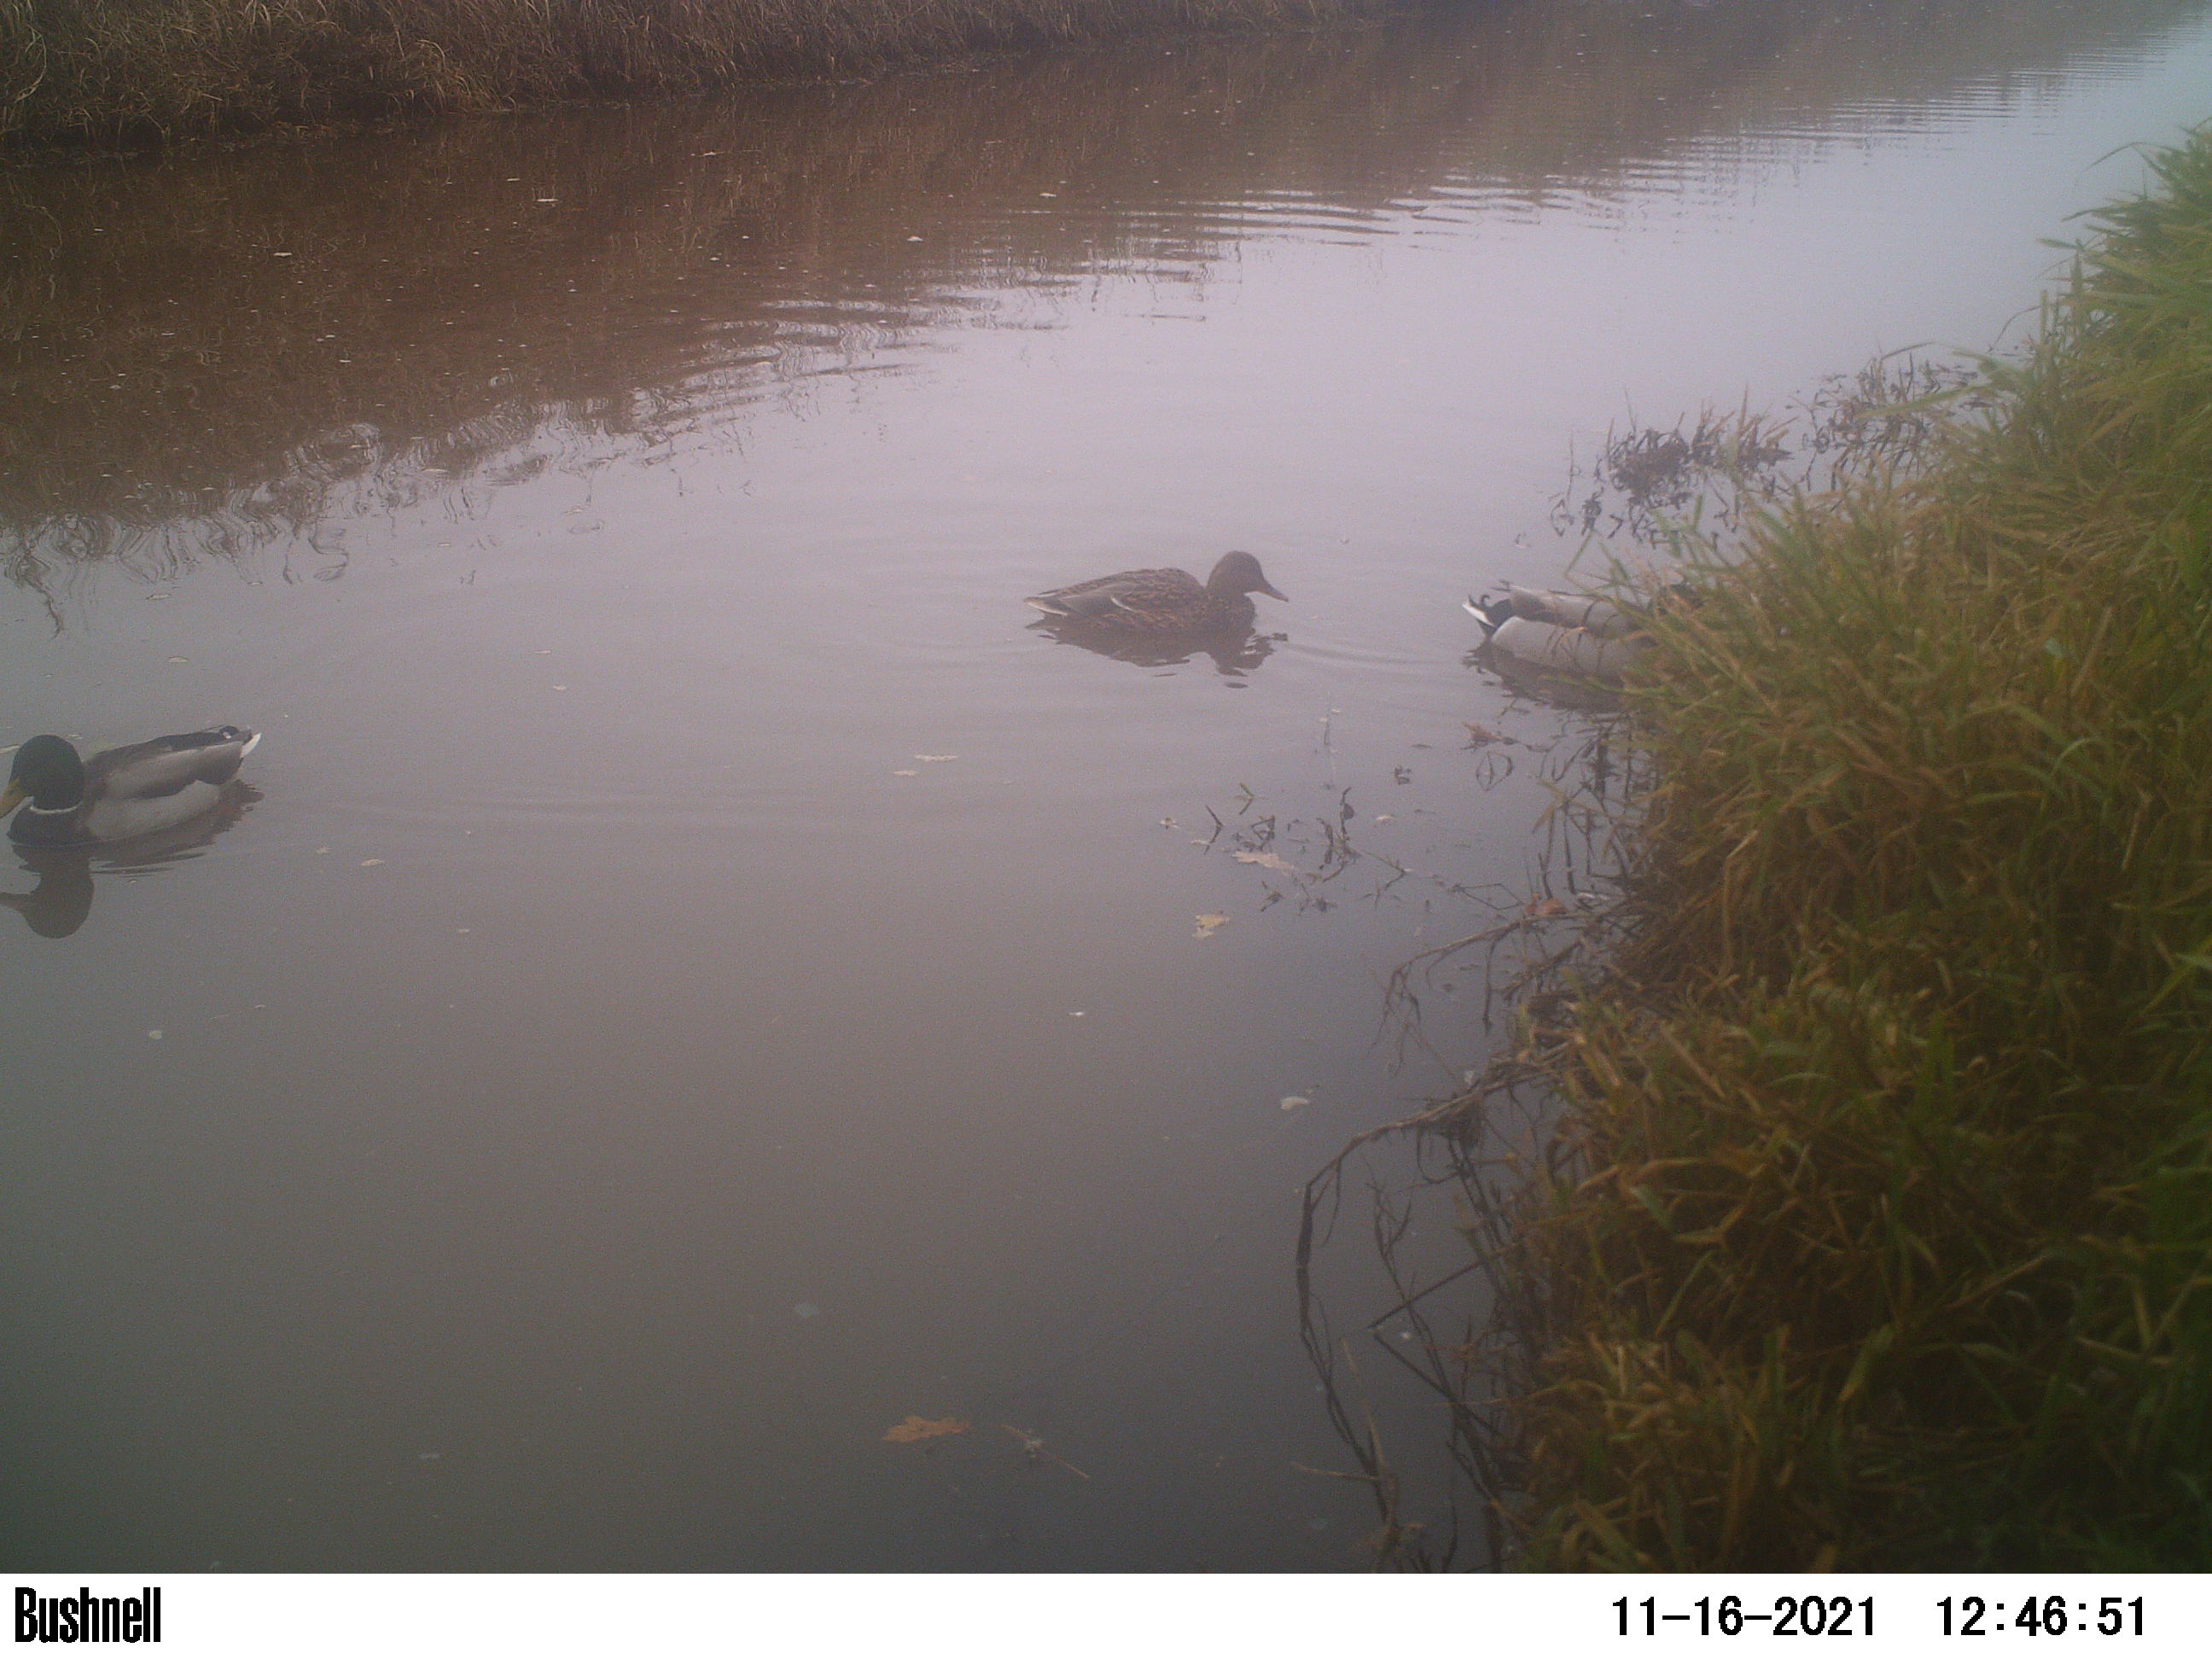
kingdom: Animalia
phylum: Chordata
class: Aves
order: Anseriformes
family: Anatidae
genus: Anas
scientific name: Anas
